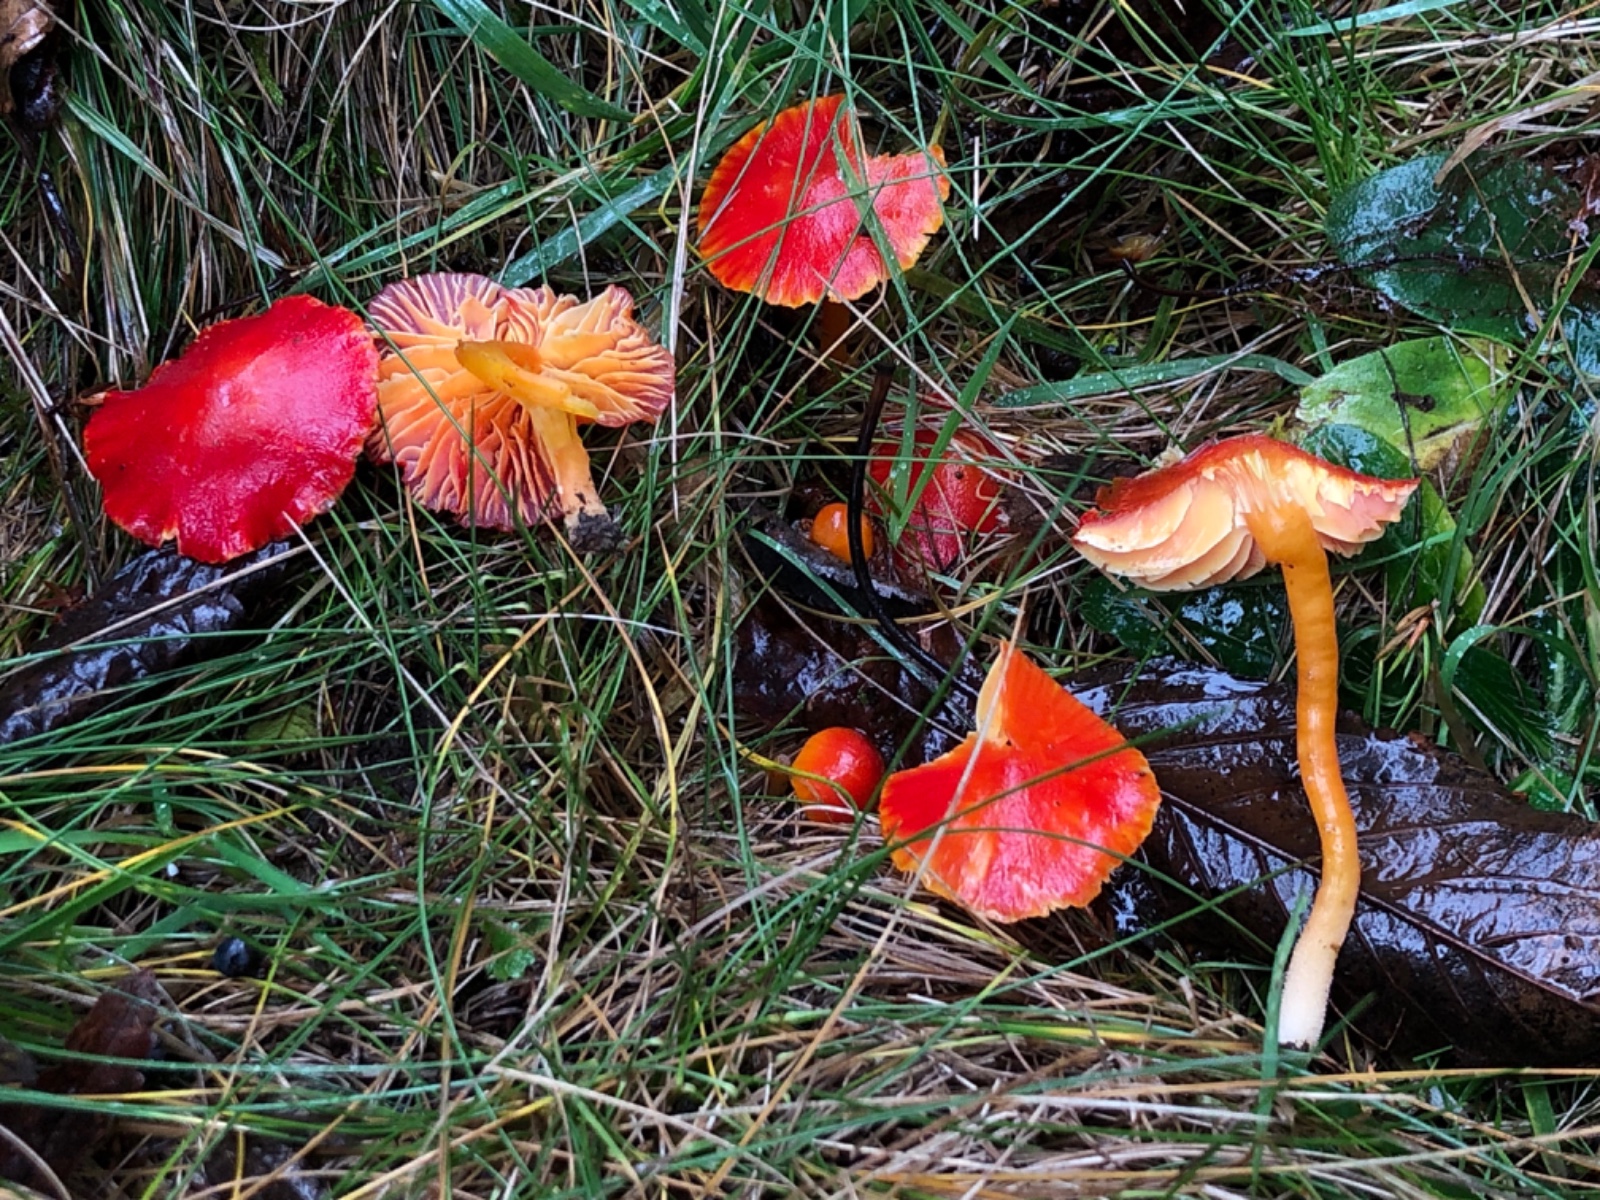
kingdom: Fungi
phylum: Basidiomycota
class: Agaricomycetes
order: Agaricales
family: Hygrophoraceae
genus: Hygrocybe
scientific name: Hygrocybe coccinea
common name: cinnober-vokshat
